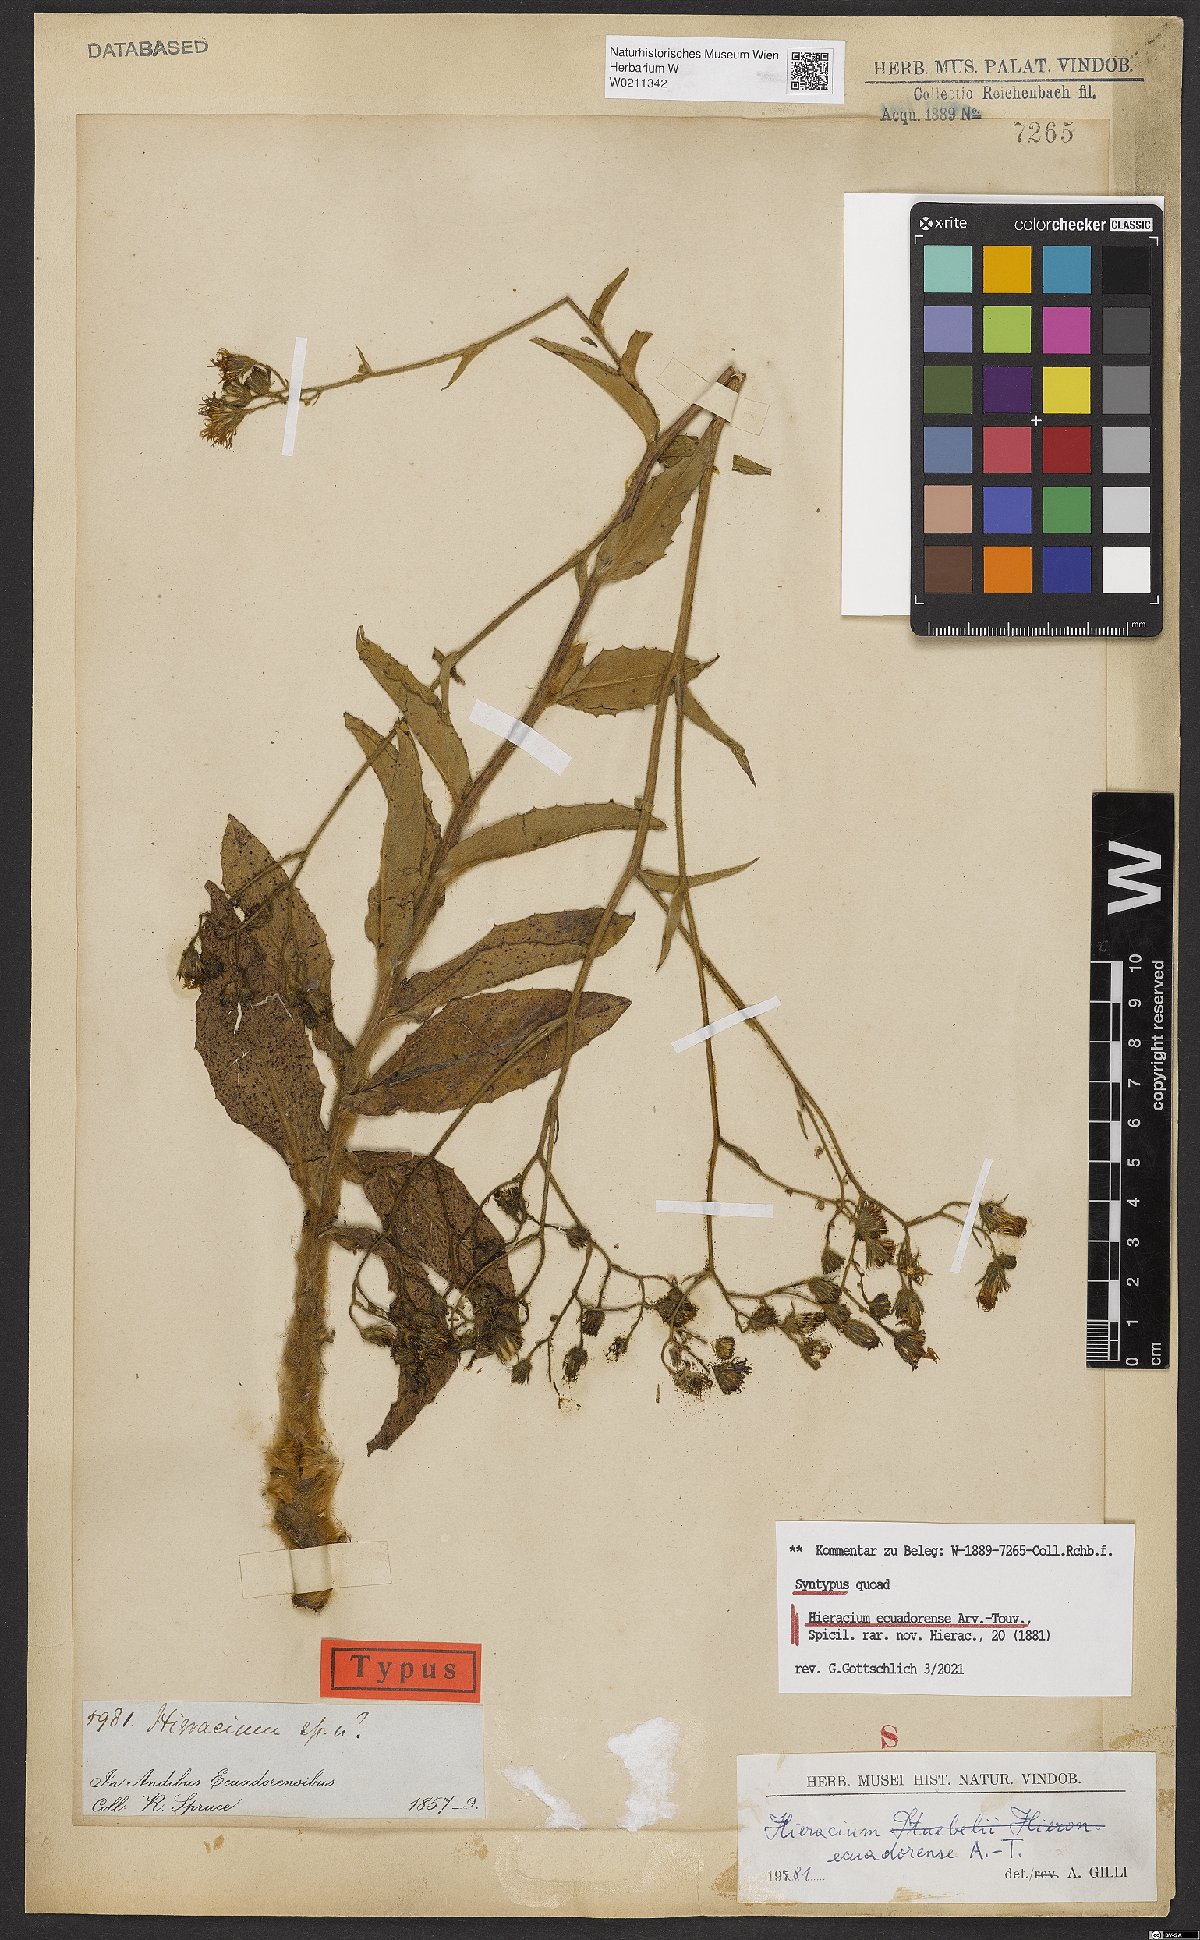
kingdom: Plantae
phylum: Tracheophyta
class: Magnoliopsida
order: Asterales
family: Asteraceae
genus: Hieracium
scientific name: Hieracium ecuadorense
